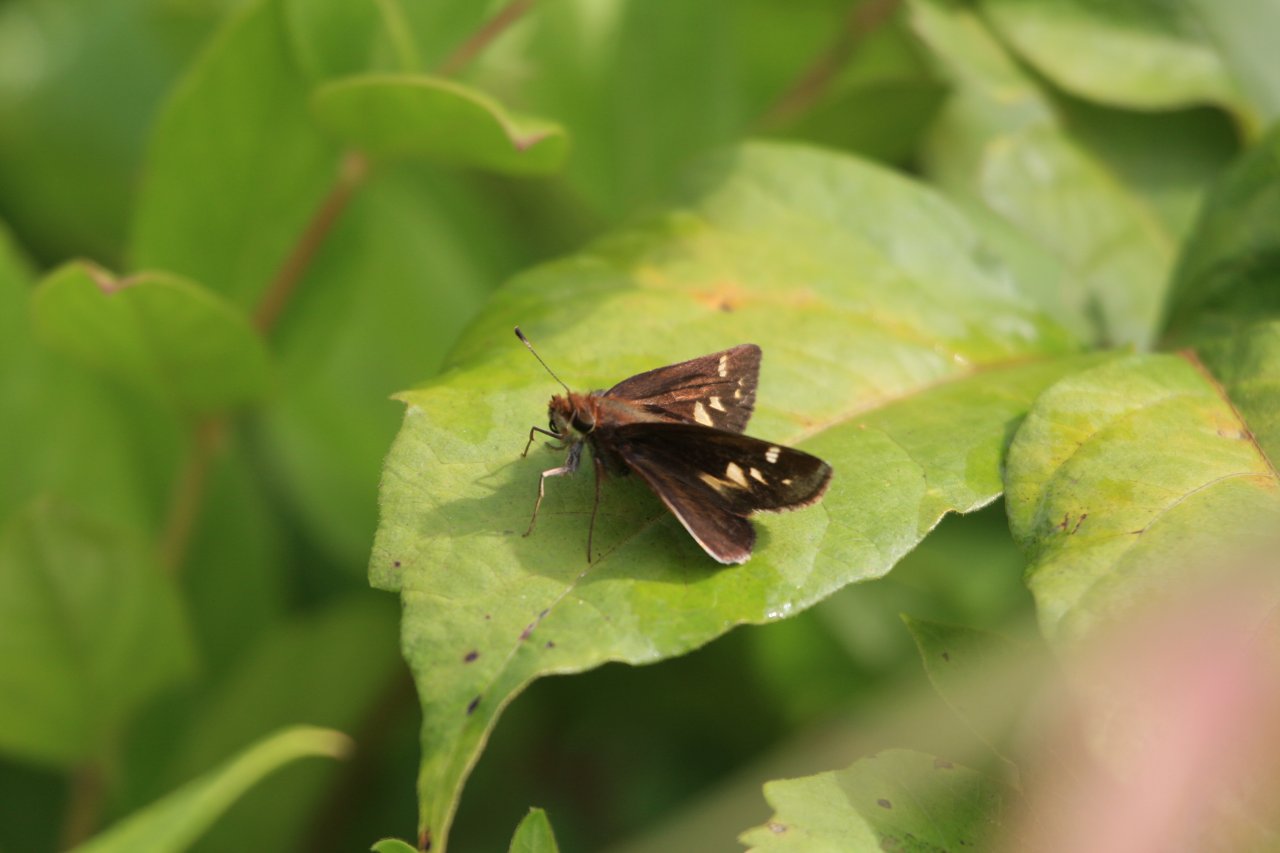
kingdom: Animalia
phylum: Arthropoda
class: Insecta
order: Lepidoptera
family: Hesperiidae
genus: Lon
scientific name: Lon zabulon
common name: Zabulon Skipper
